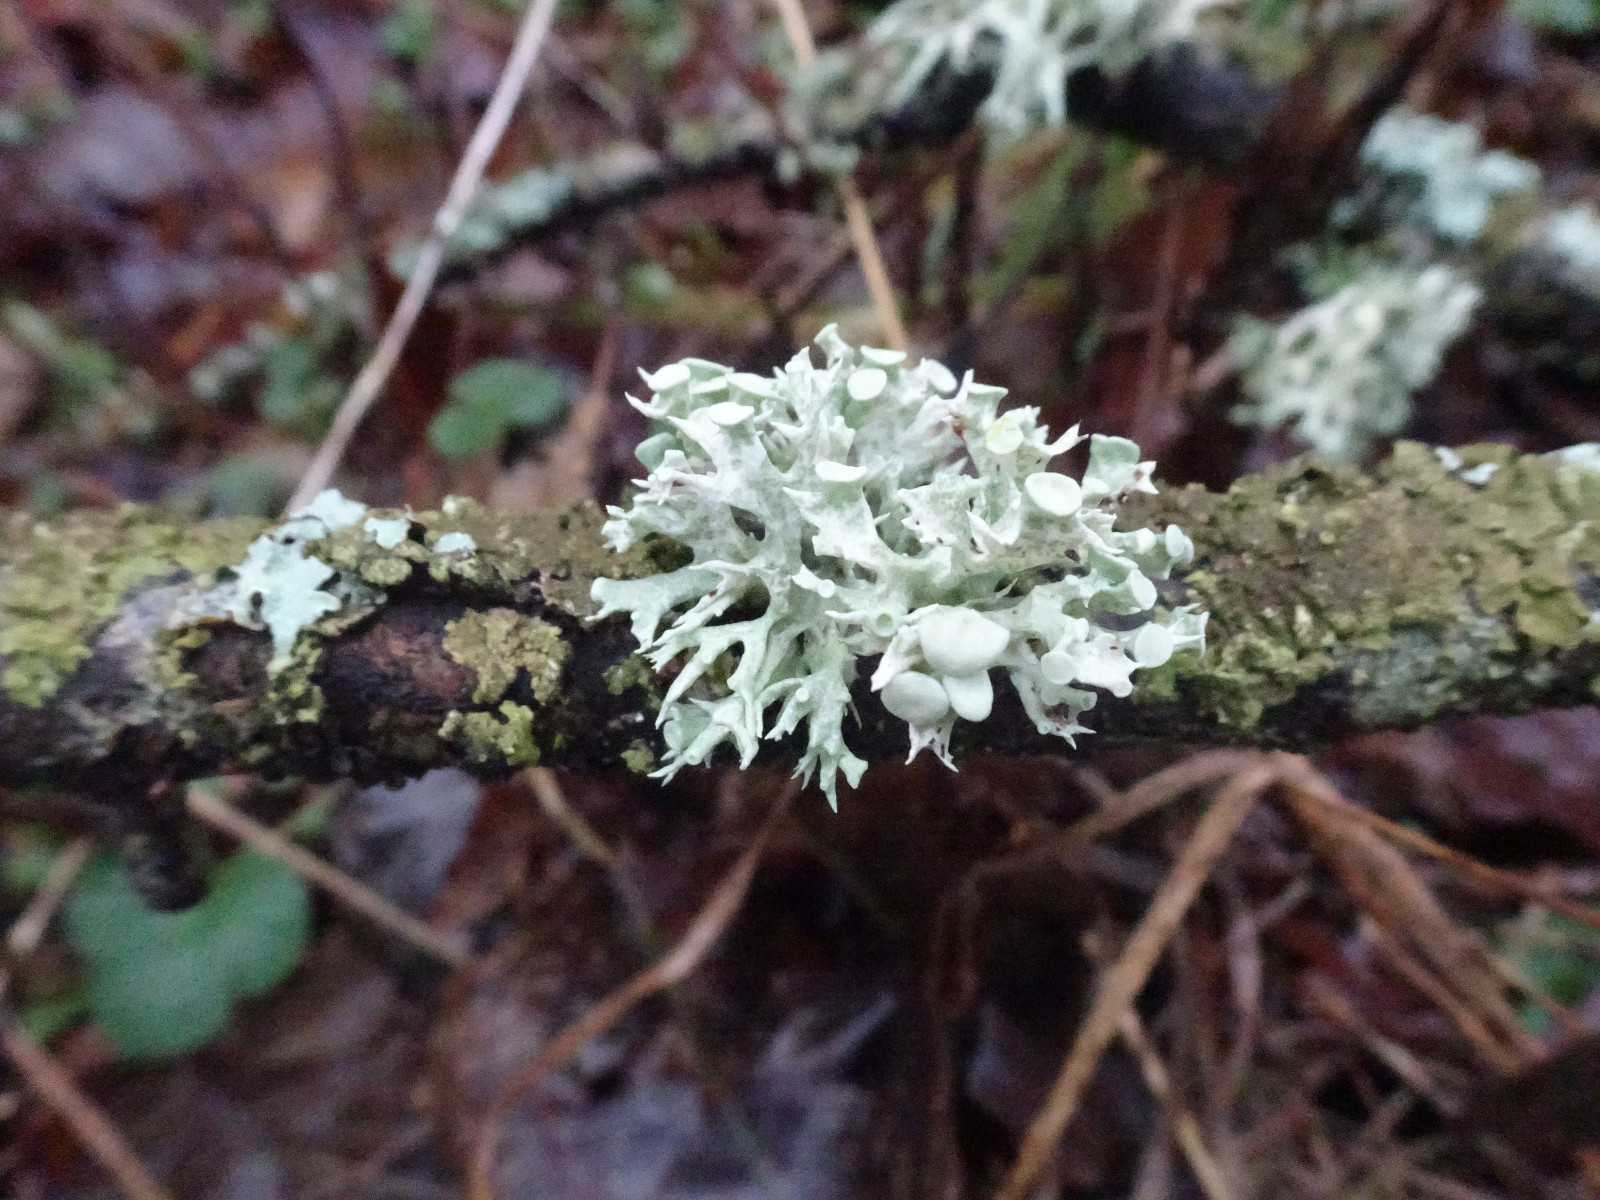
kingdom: Fungi
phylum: Ascomycota
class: Lecanoromycetes
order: Lecanorales
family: Ramalinaceae
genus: Ramalina
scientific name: Ramalina fastigiata
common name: tue-grenlav
